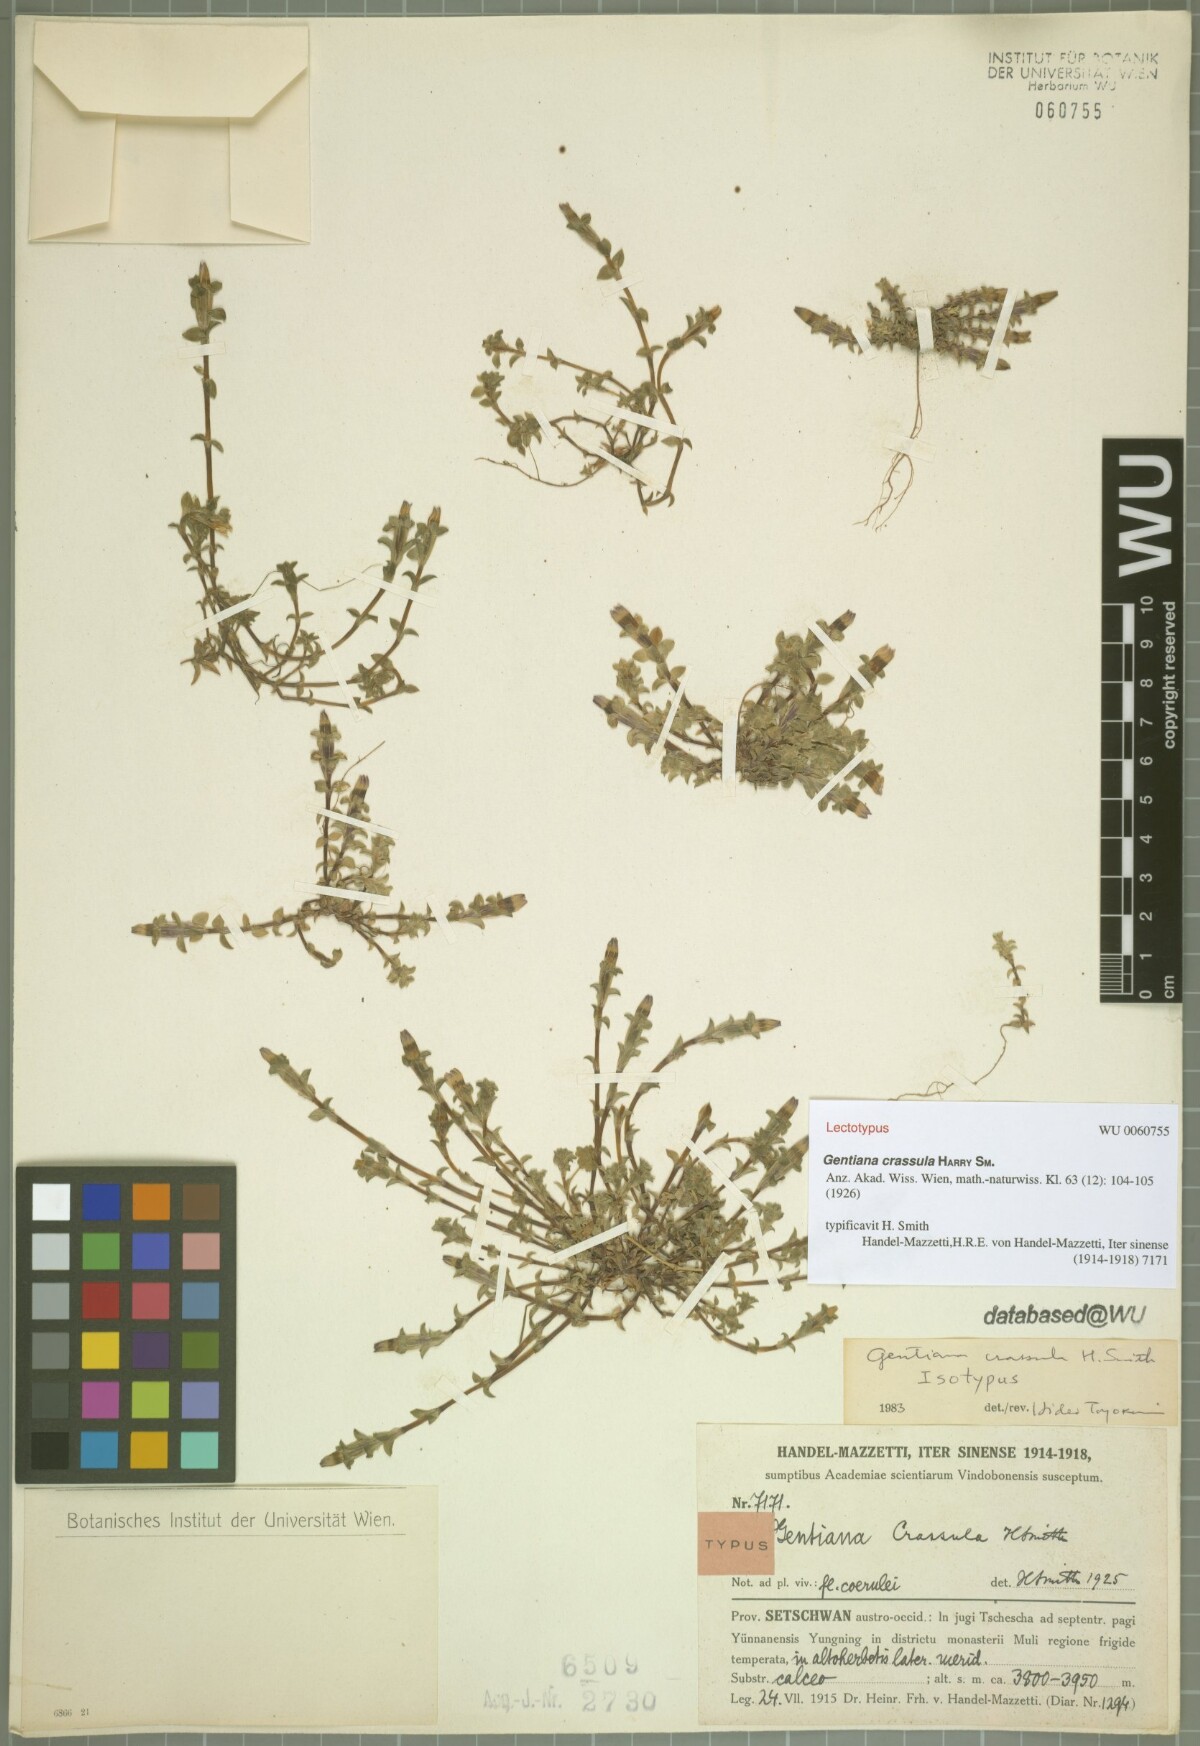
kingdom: Plantae
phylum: Tracheophyta
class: Magnoliopsida
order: Gentianales
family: Gentianaceae
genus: Gentiana
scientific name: Gentiana crassula
